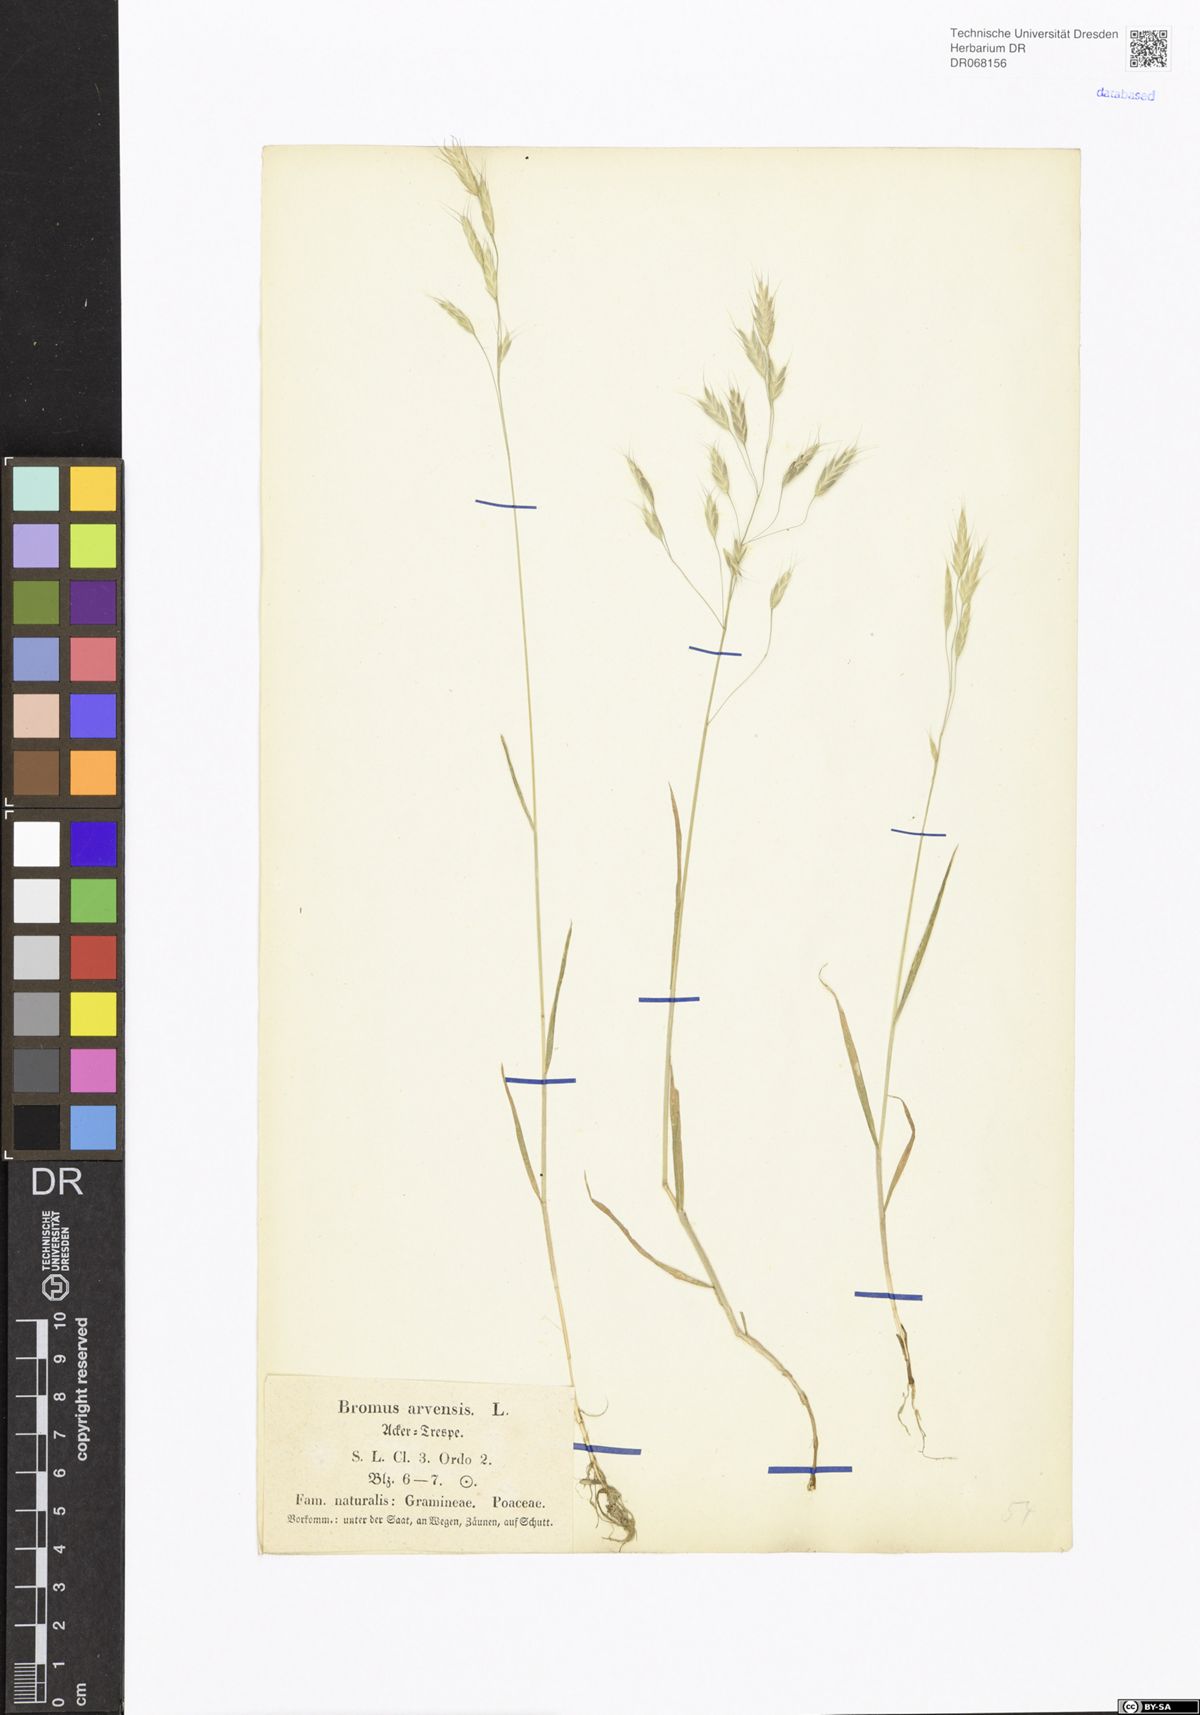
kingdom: Plantae
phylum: Tracheophyta
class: Liliopsida
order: Poales
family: Poaceae
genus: Bromus
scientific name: Bromus arvensis
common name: Field brome
